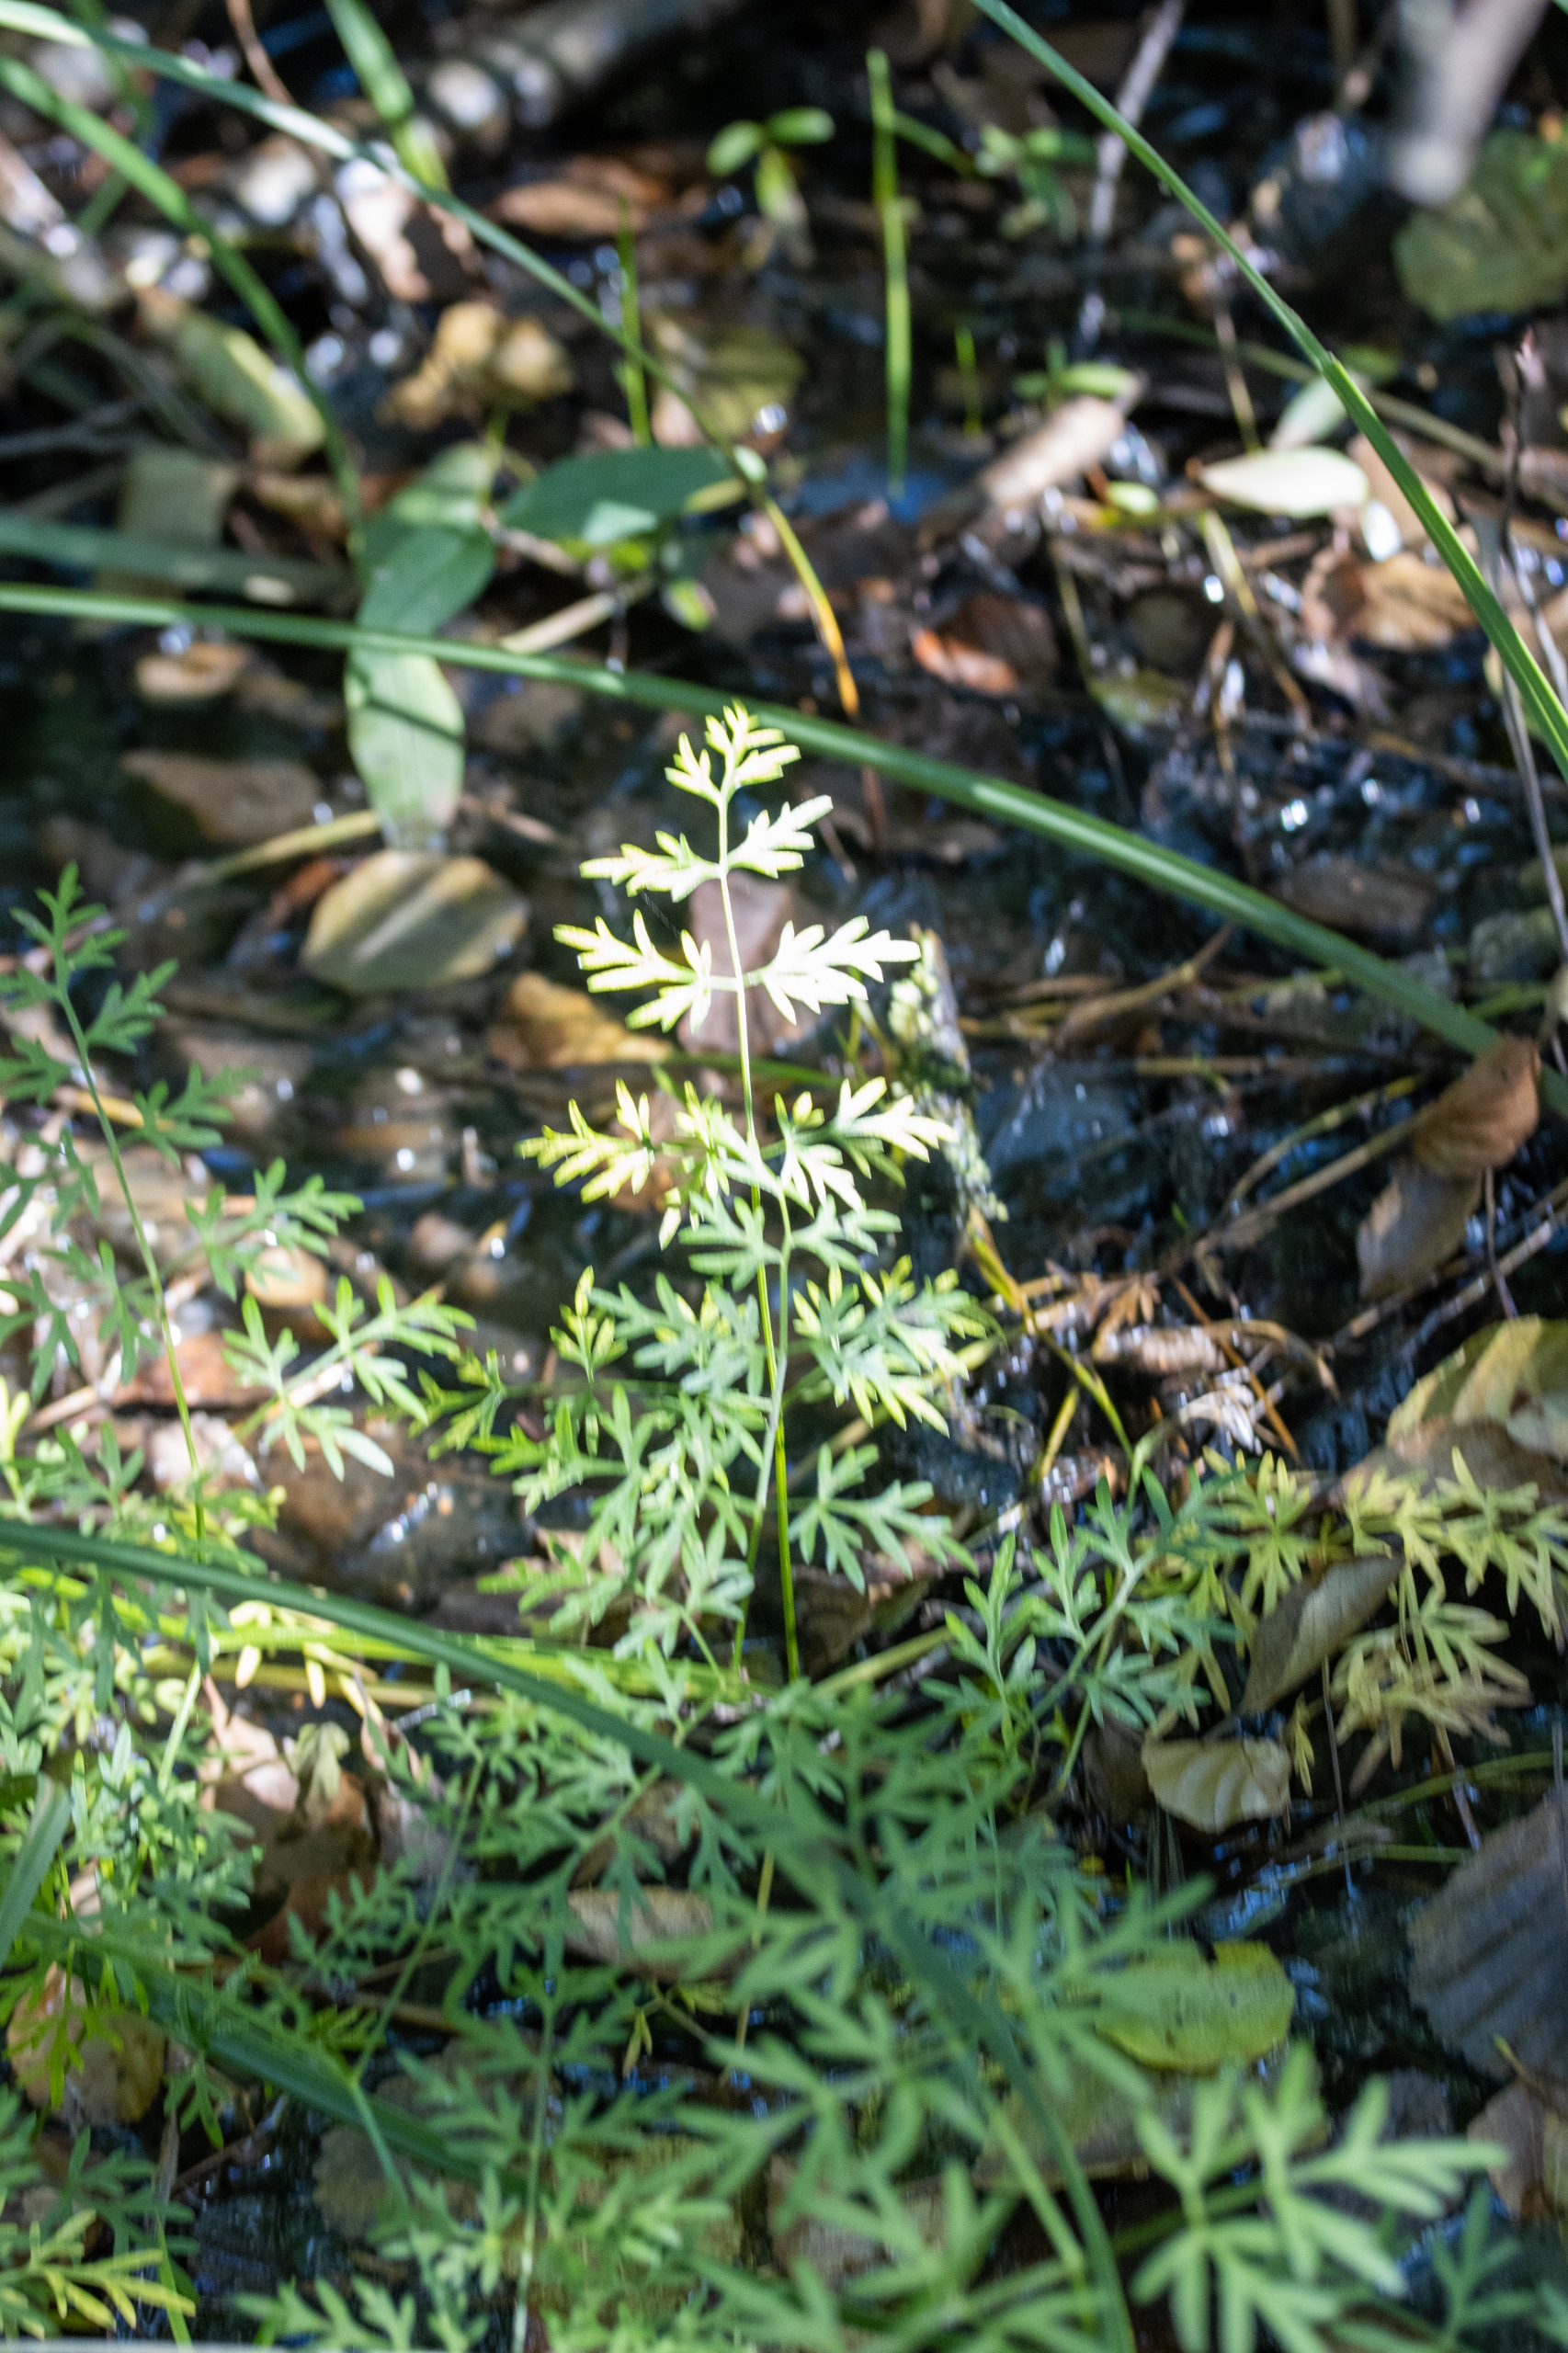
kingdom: Plantae
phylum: Tracheophyta
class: Magnoliopsida
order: Apiales
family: Apiaceae
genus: Thysselinum
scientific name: Thysselinum palustre
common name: Kær-svovlrod
